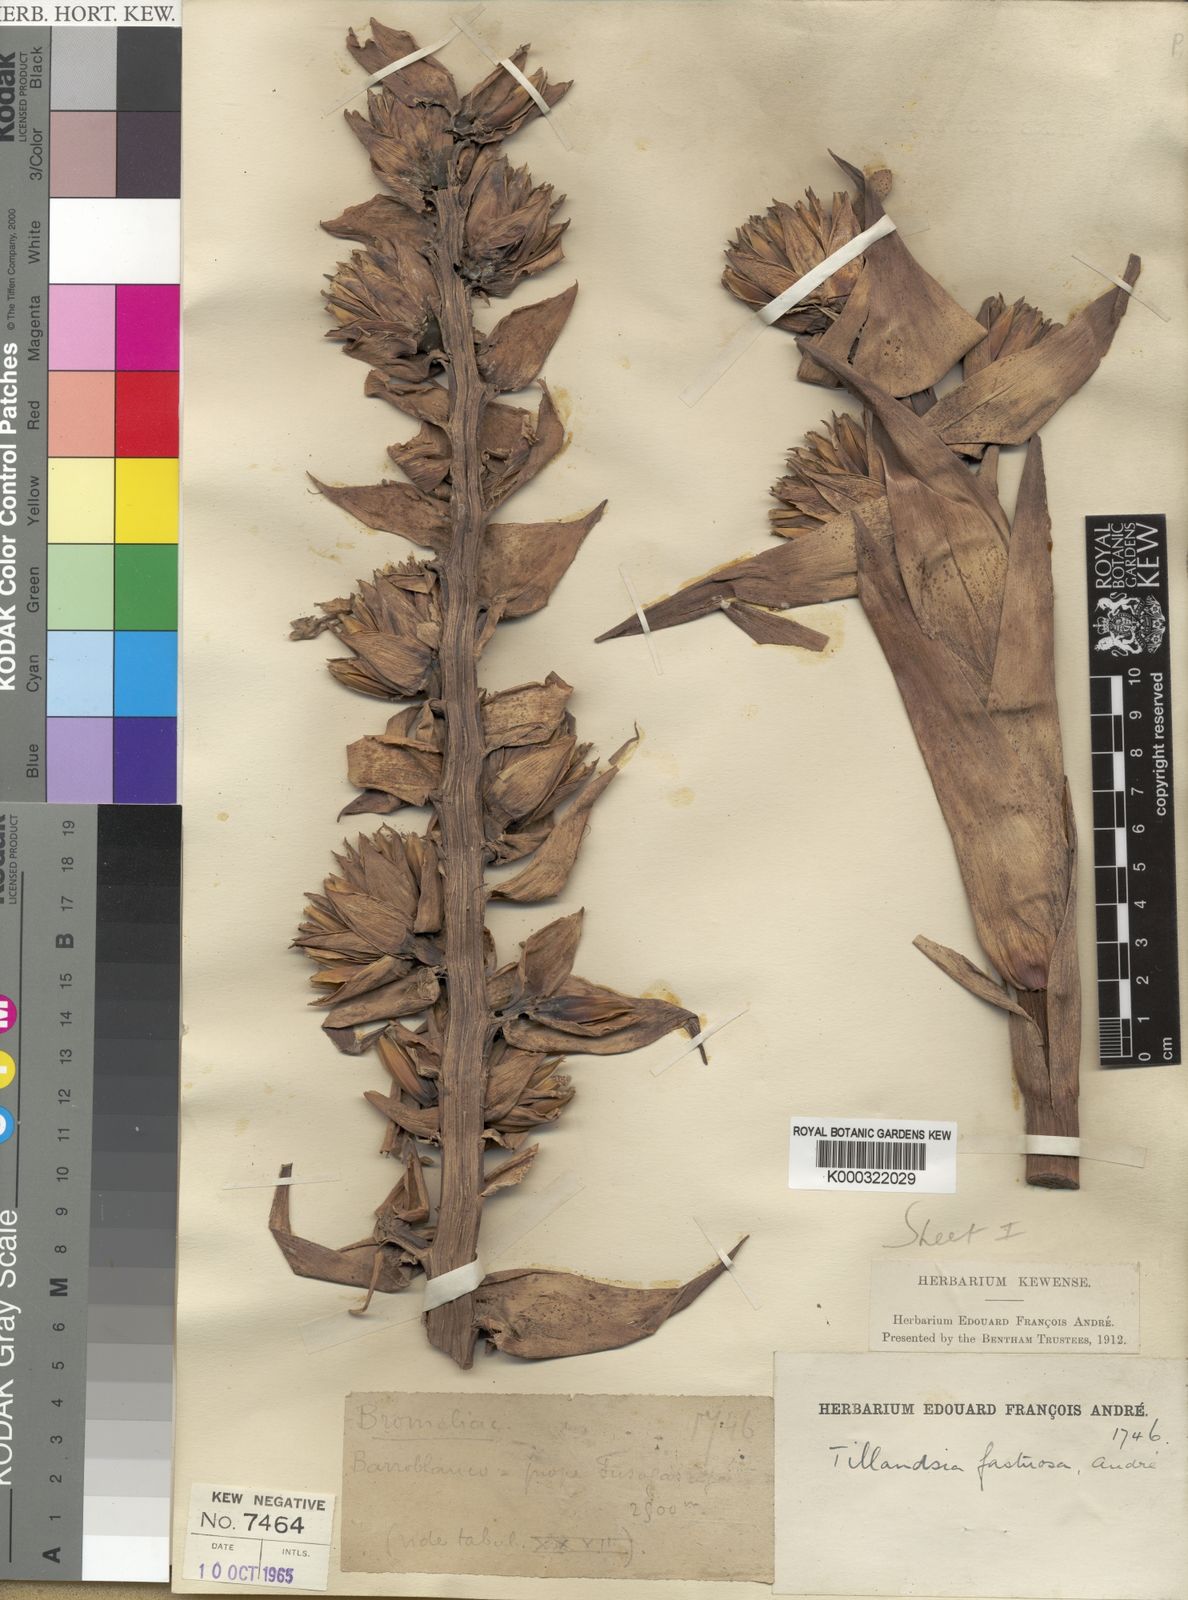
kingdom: Plantae
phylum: Tracheophyta
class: Liliopsida
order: Poales
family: Bromeliaceae
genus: Tillandsia
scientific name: Tillandsia
